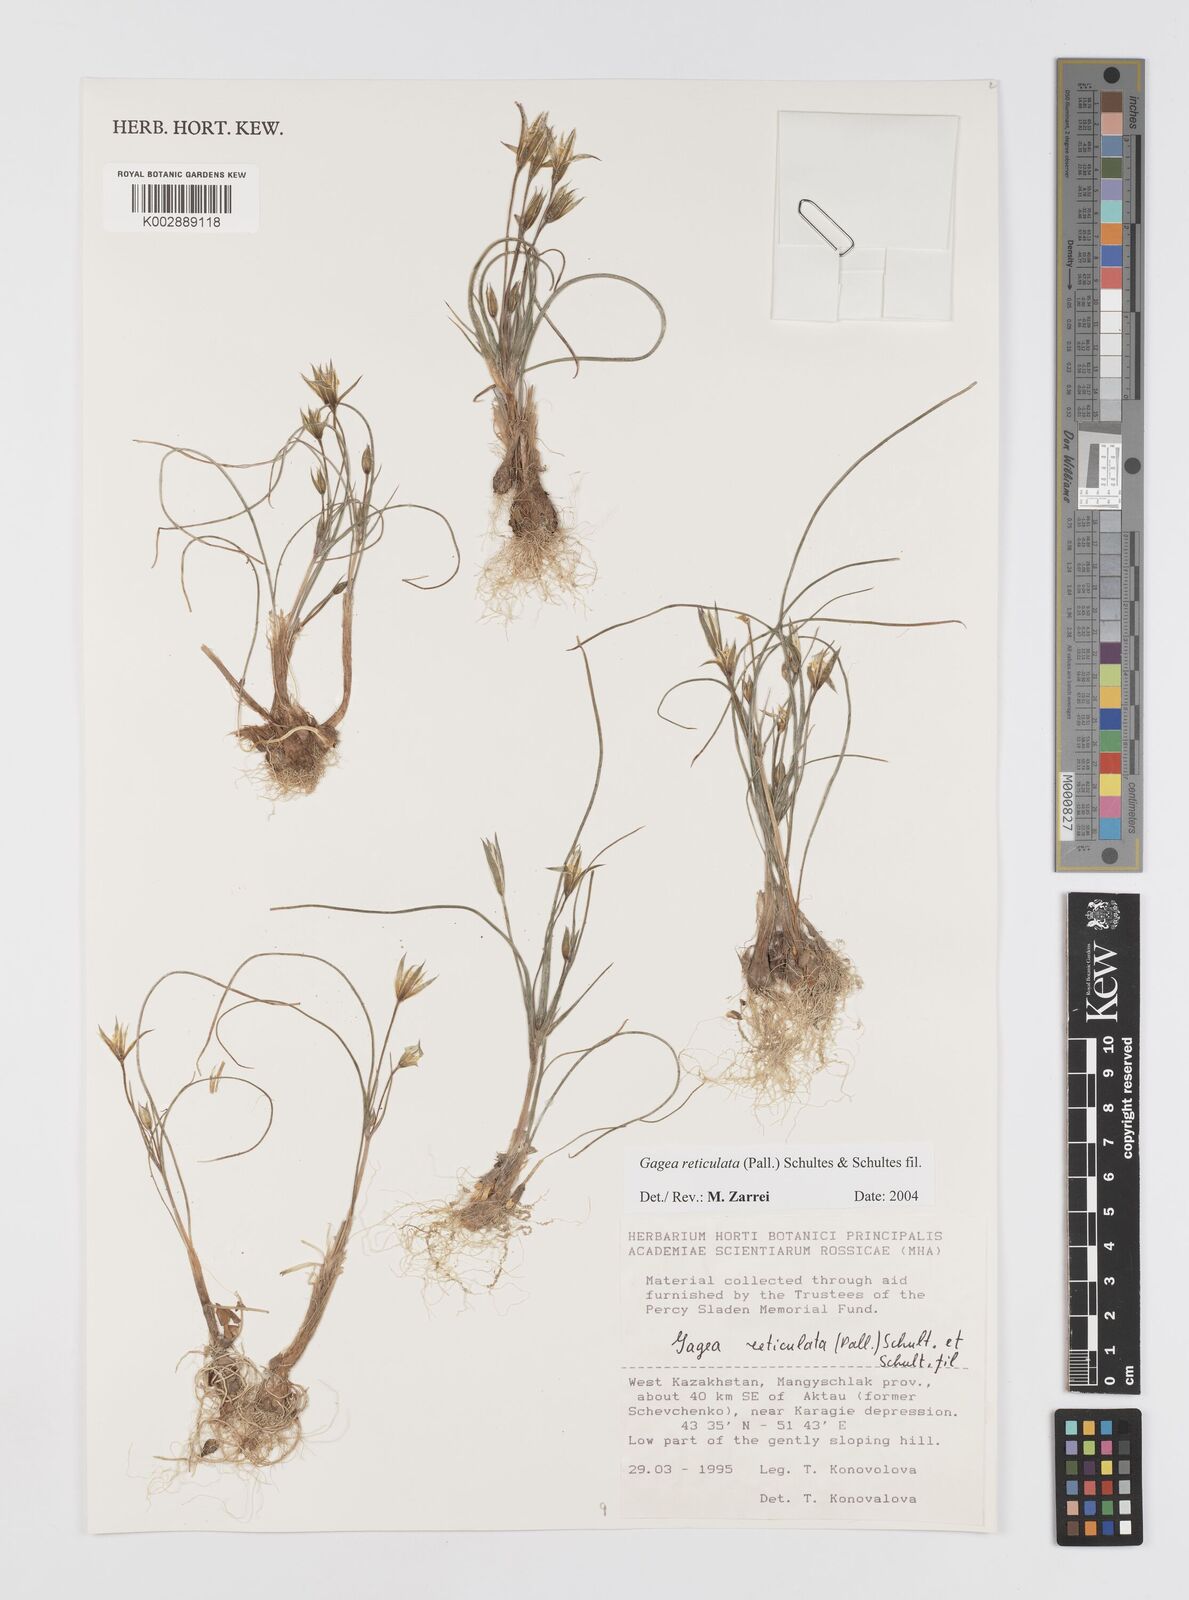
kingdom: Plantae
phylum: Tracheophyta
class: Liliopsida
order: Liliales
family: Liliaceae
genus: Gagea
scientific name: Gagea reticulata
